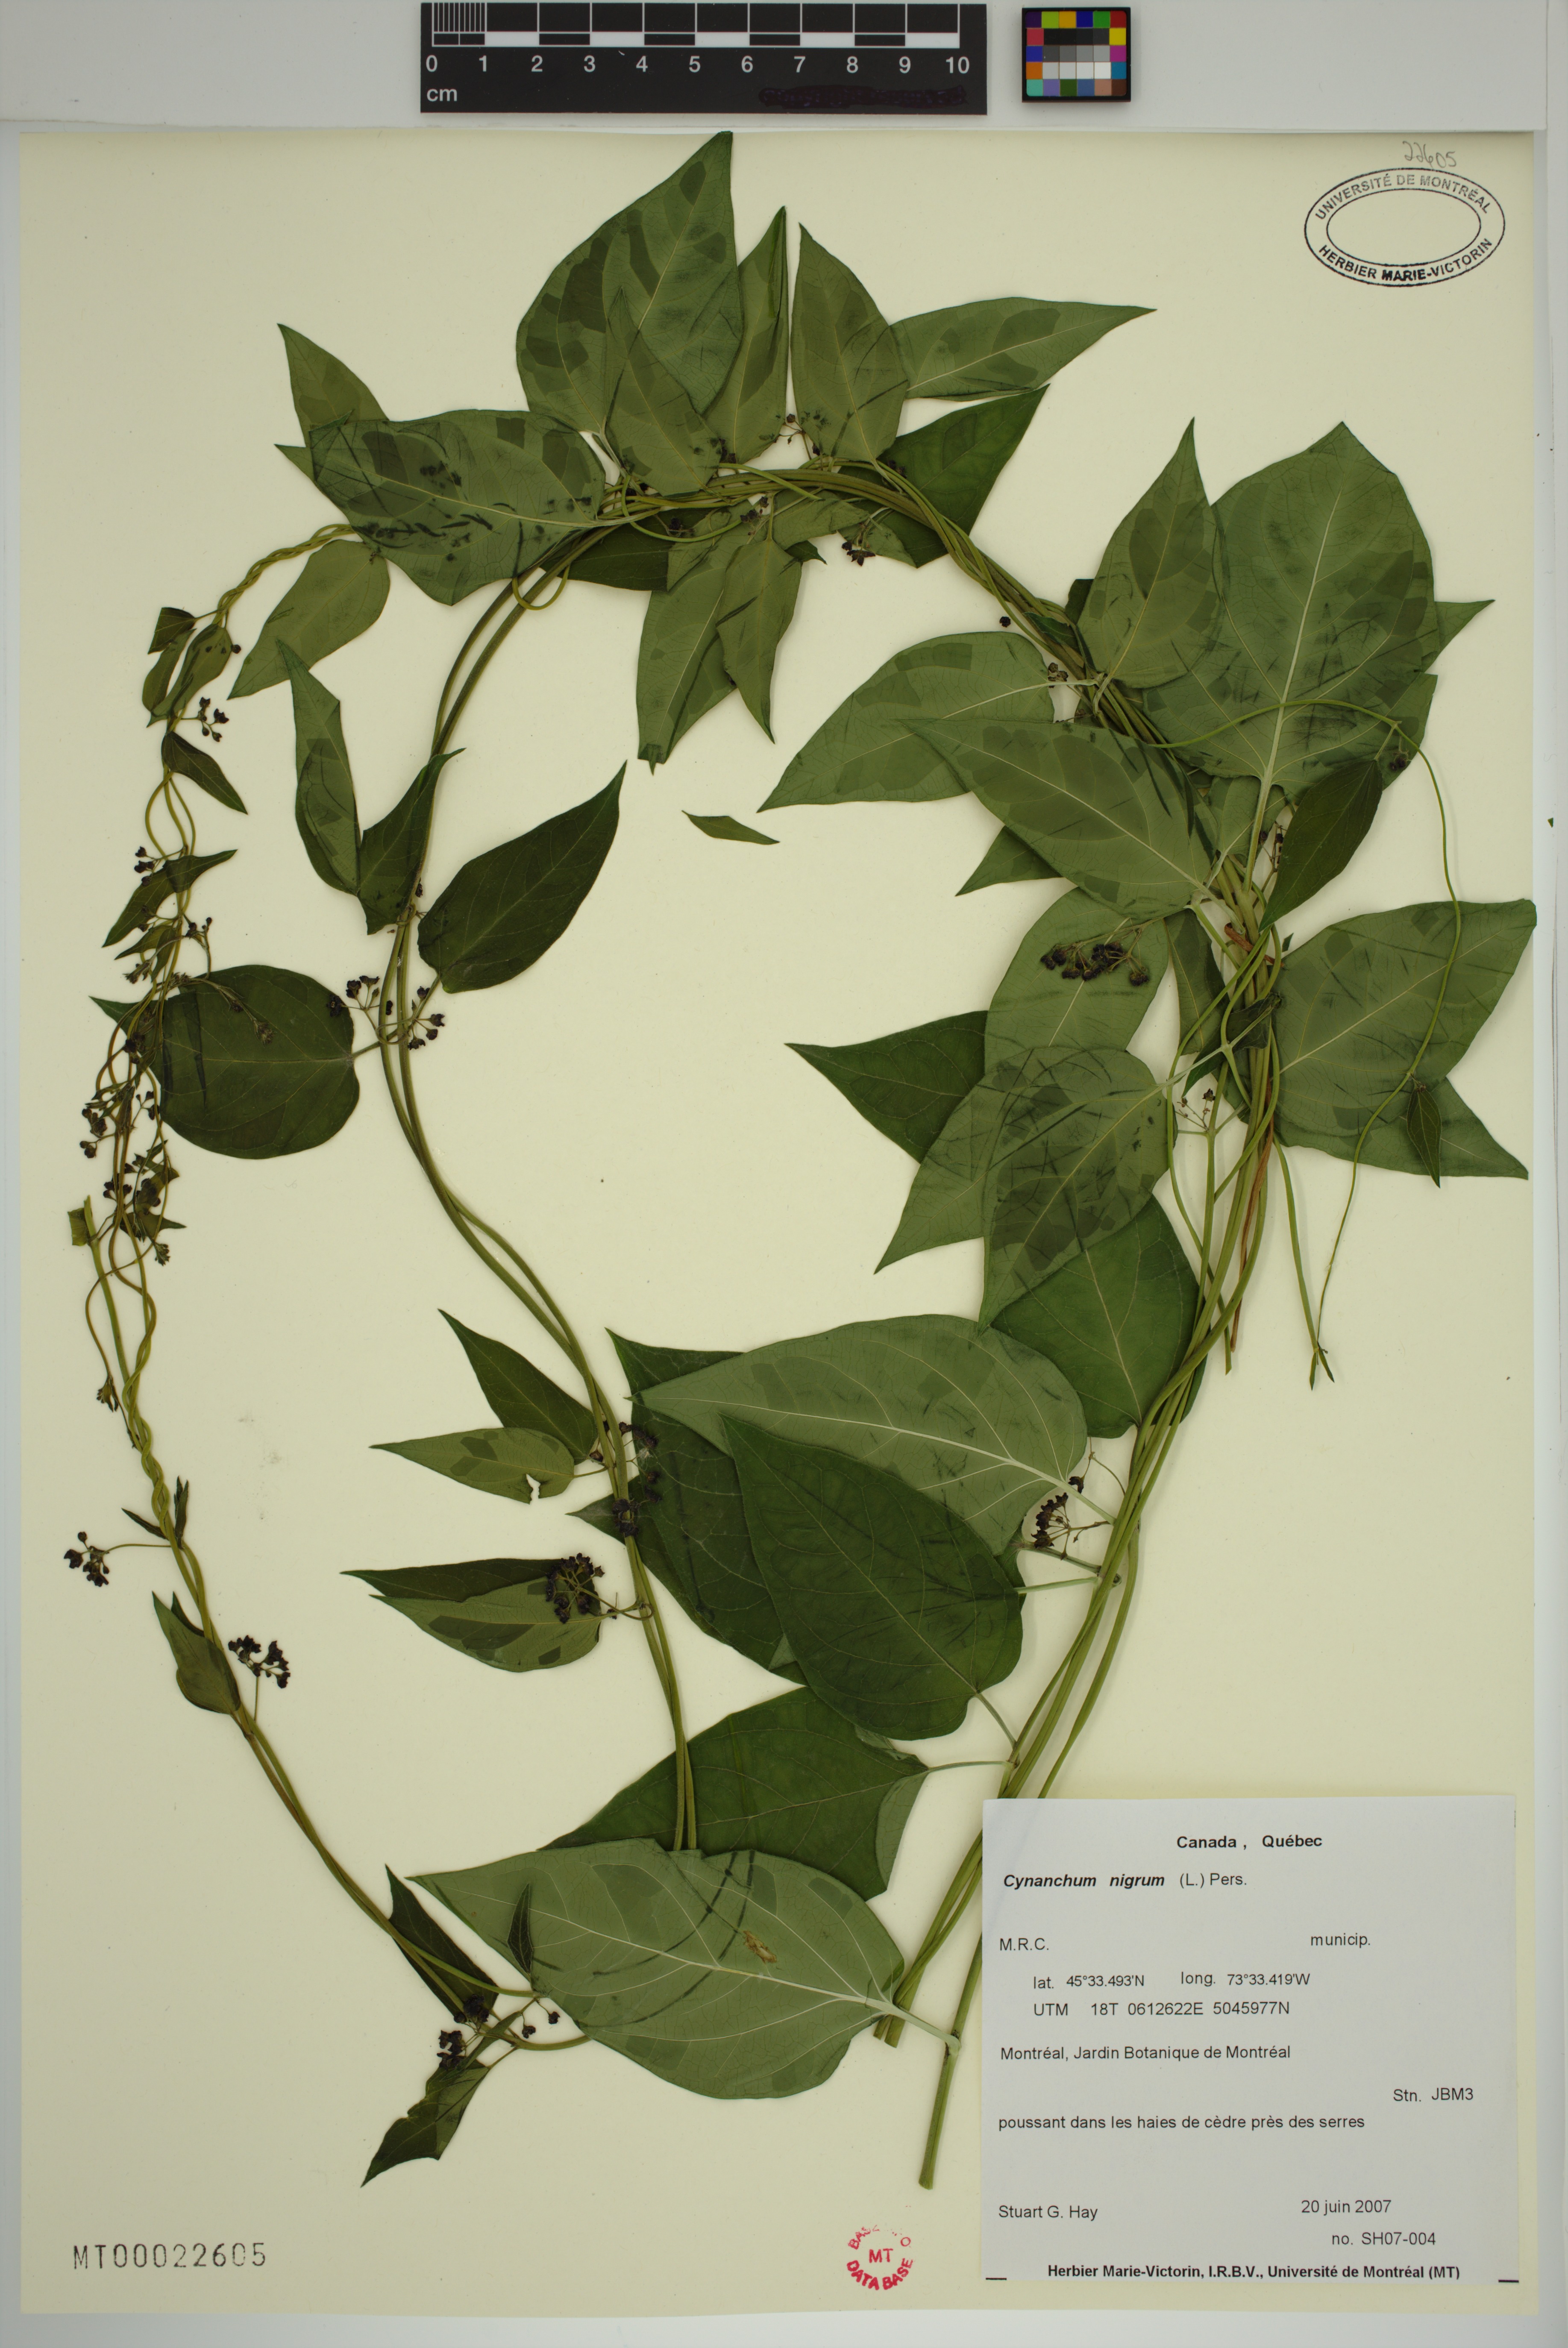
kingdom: Plantae
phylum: Tracheophyta
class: Magnoliopsida
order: Gentianales
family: Apocynaceae
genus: Vincetoxicum
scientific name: Vincetoxicum nigrum
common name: Black swallow-wort
